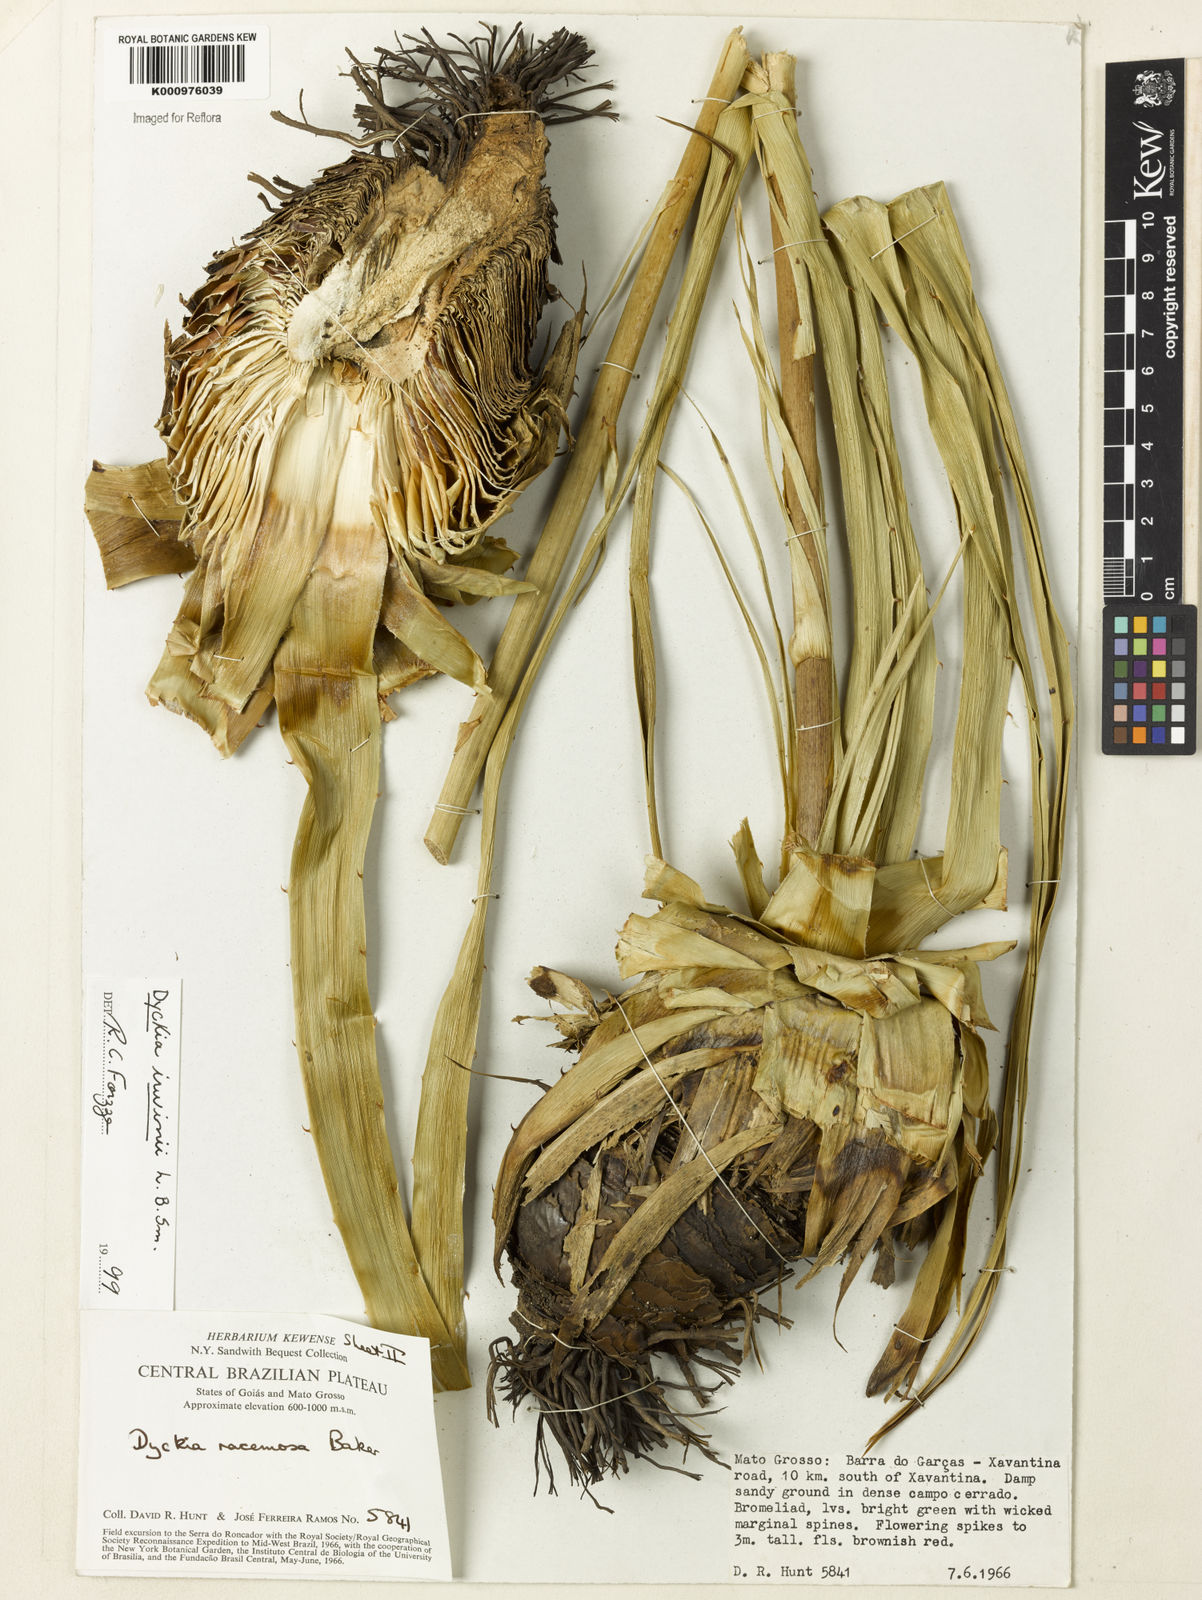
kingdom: Plantae
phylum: Tracheophyta
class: Liliopsida
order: Poales
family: Bromeliaceae
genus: Dyckia
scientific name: Dyckia irwinii
